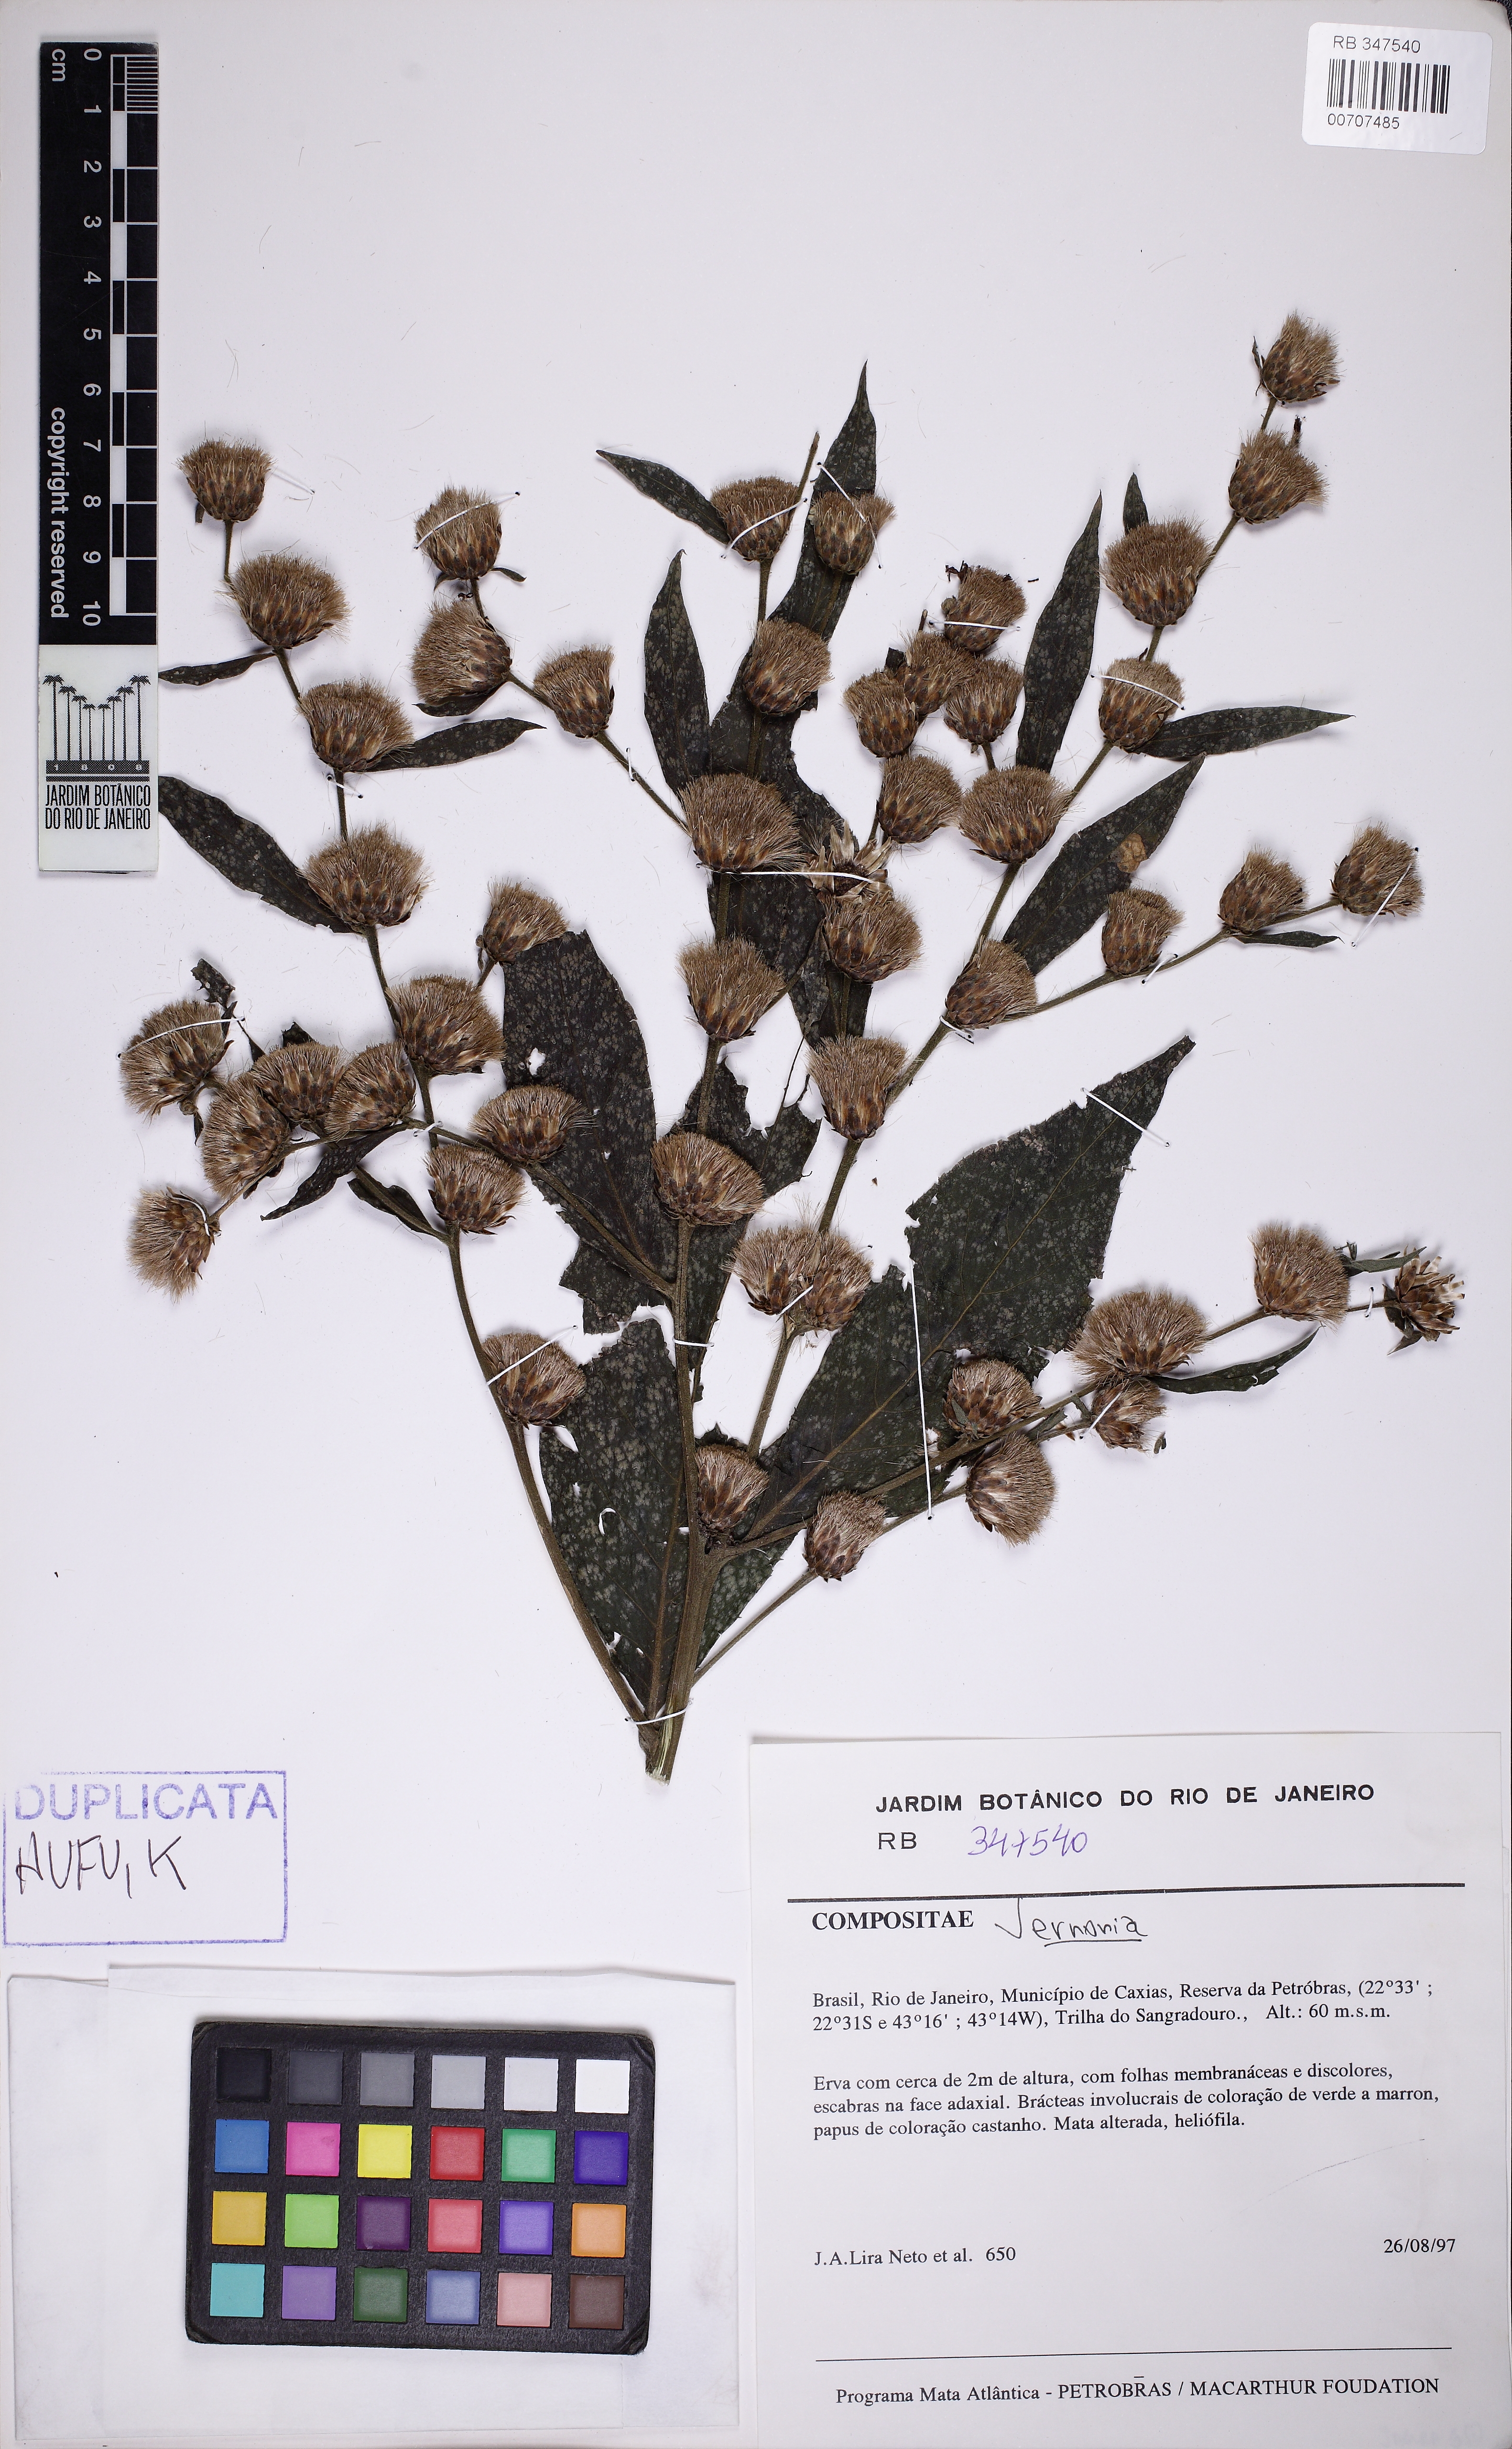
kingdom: Plantae
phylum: Tracheophyta
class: Magnoliopsida
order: Asterales
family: Asteraceae
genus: Vernonia
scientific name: Vernonia
